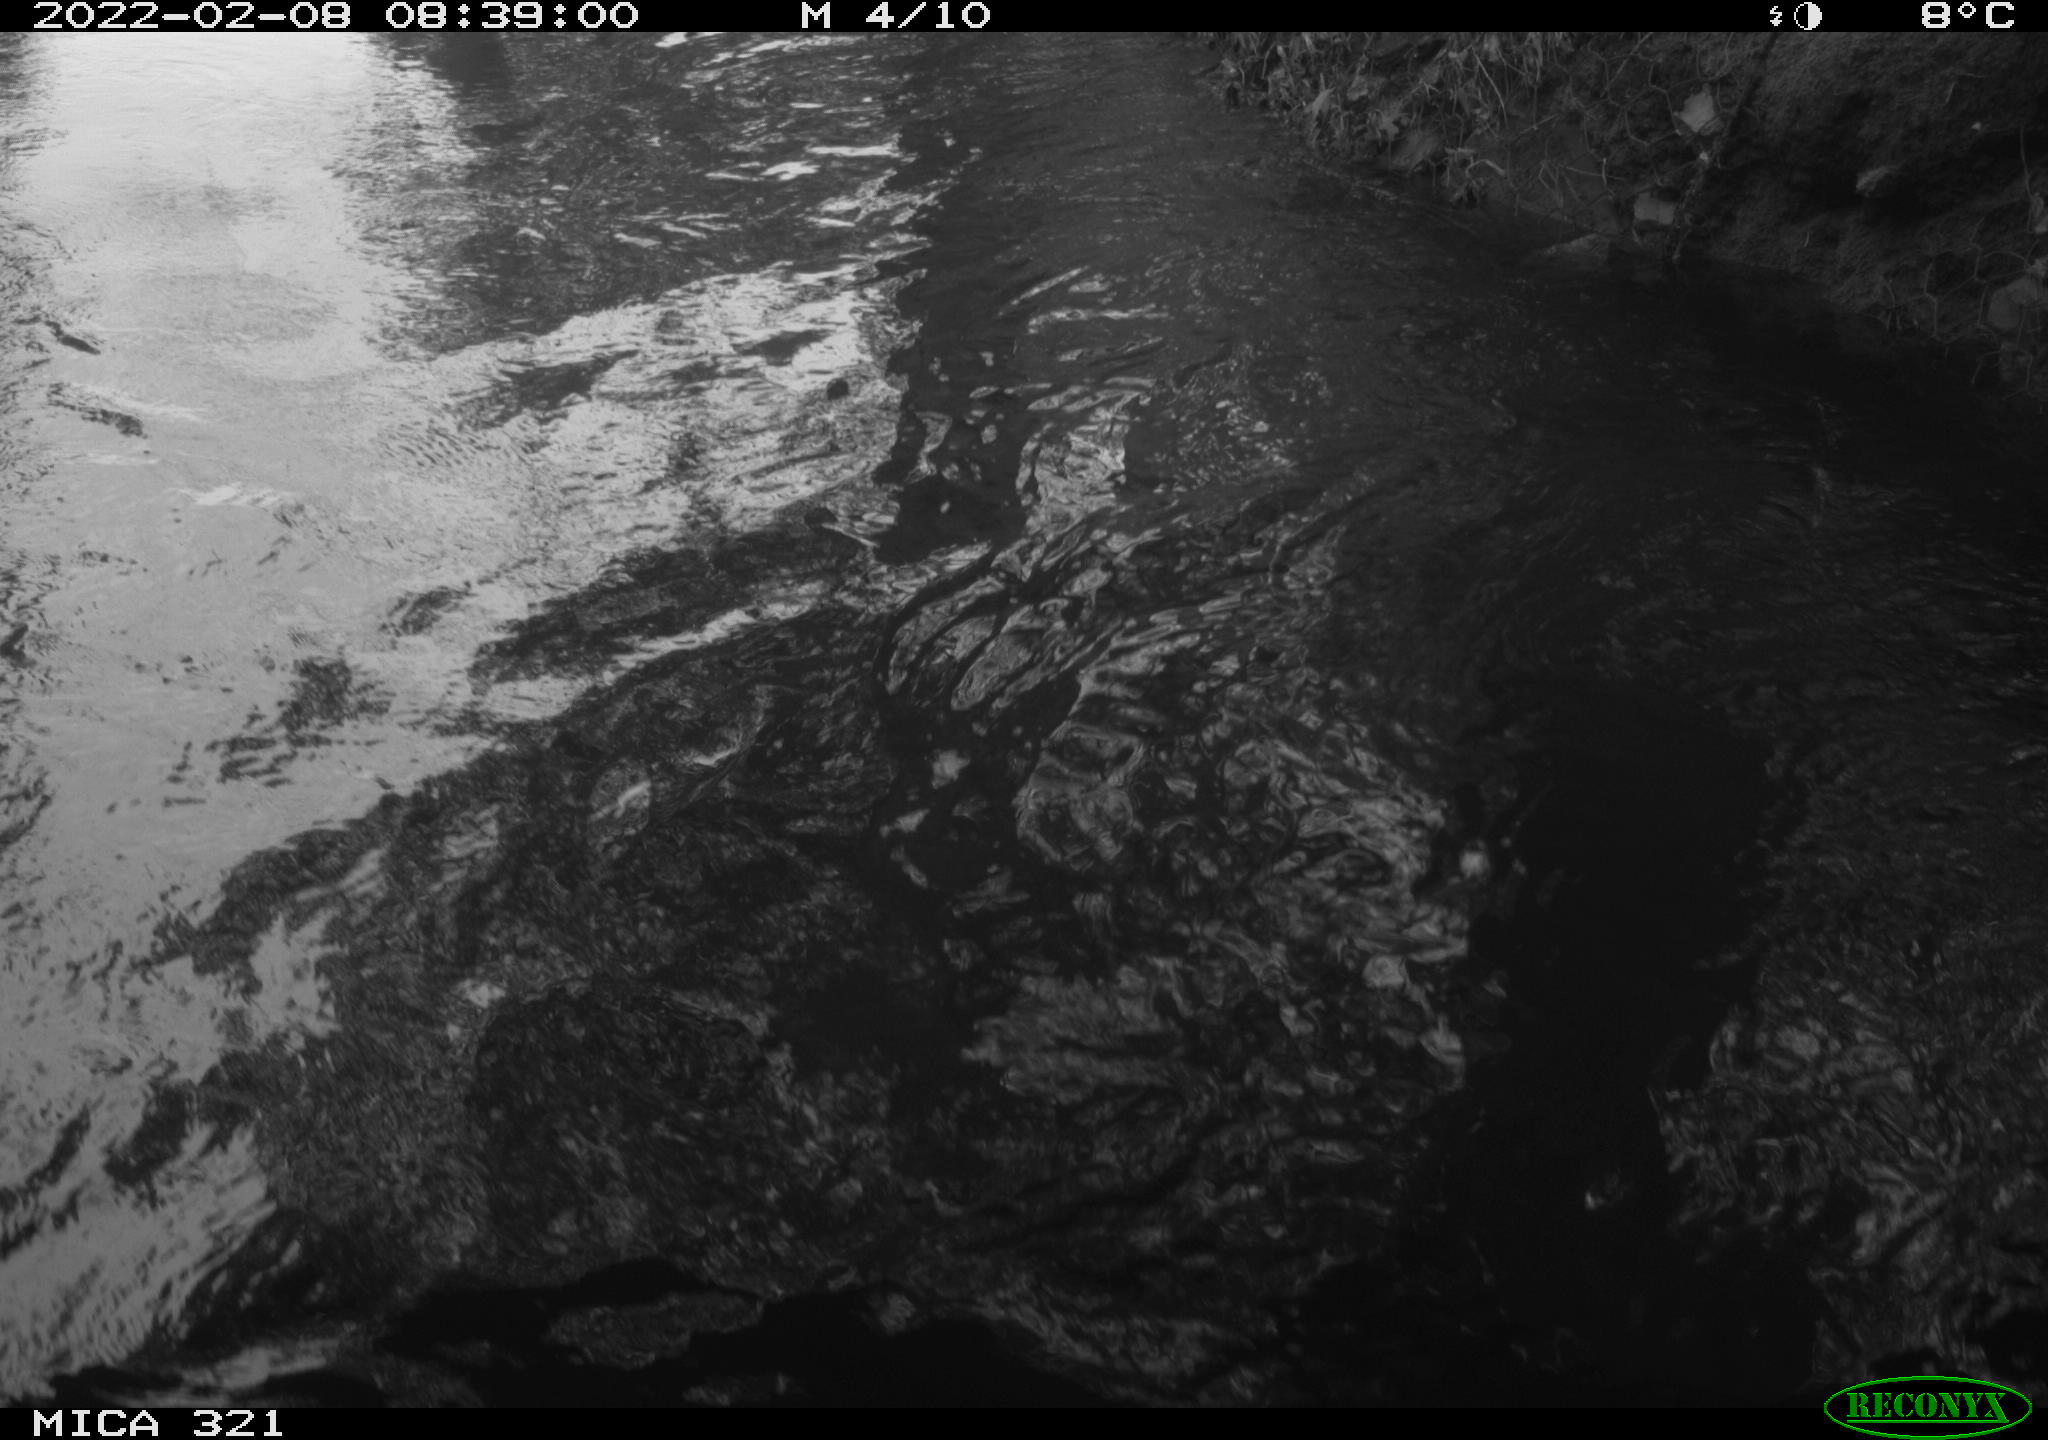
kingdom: Animalia
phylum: Chordata
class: Aves
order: Gruiformes
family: Rallidae
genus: Fulica
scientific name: Fulica atra
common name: Eurasian coot
